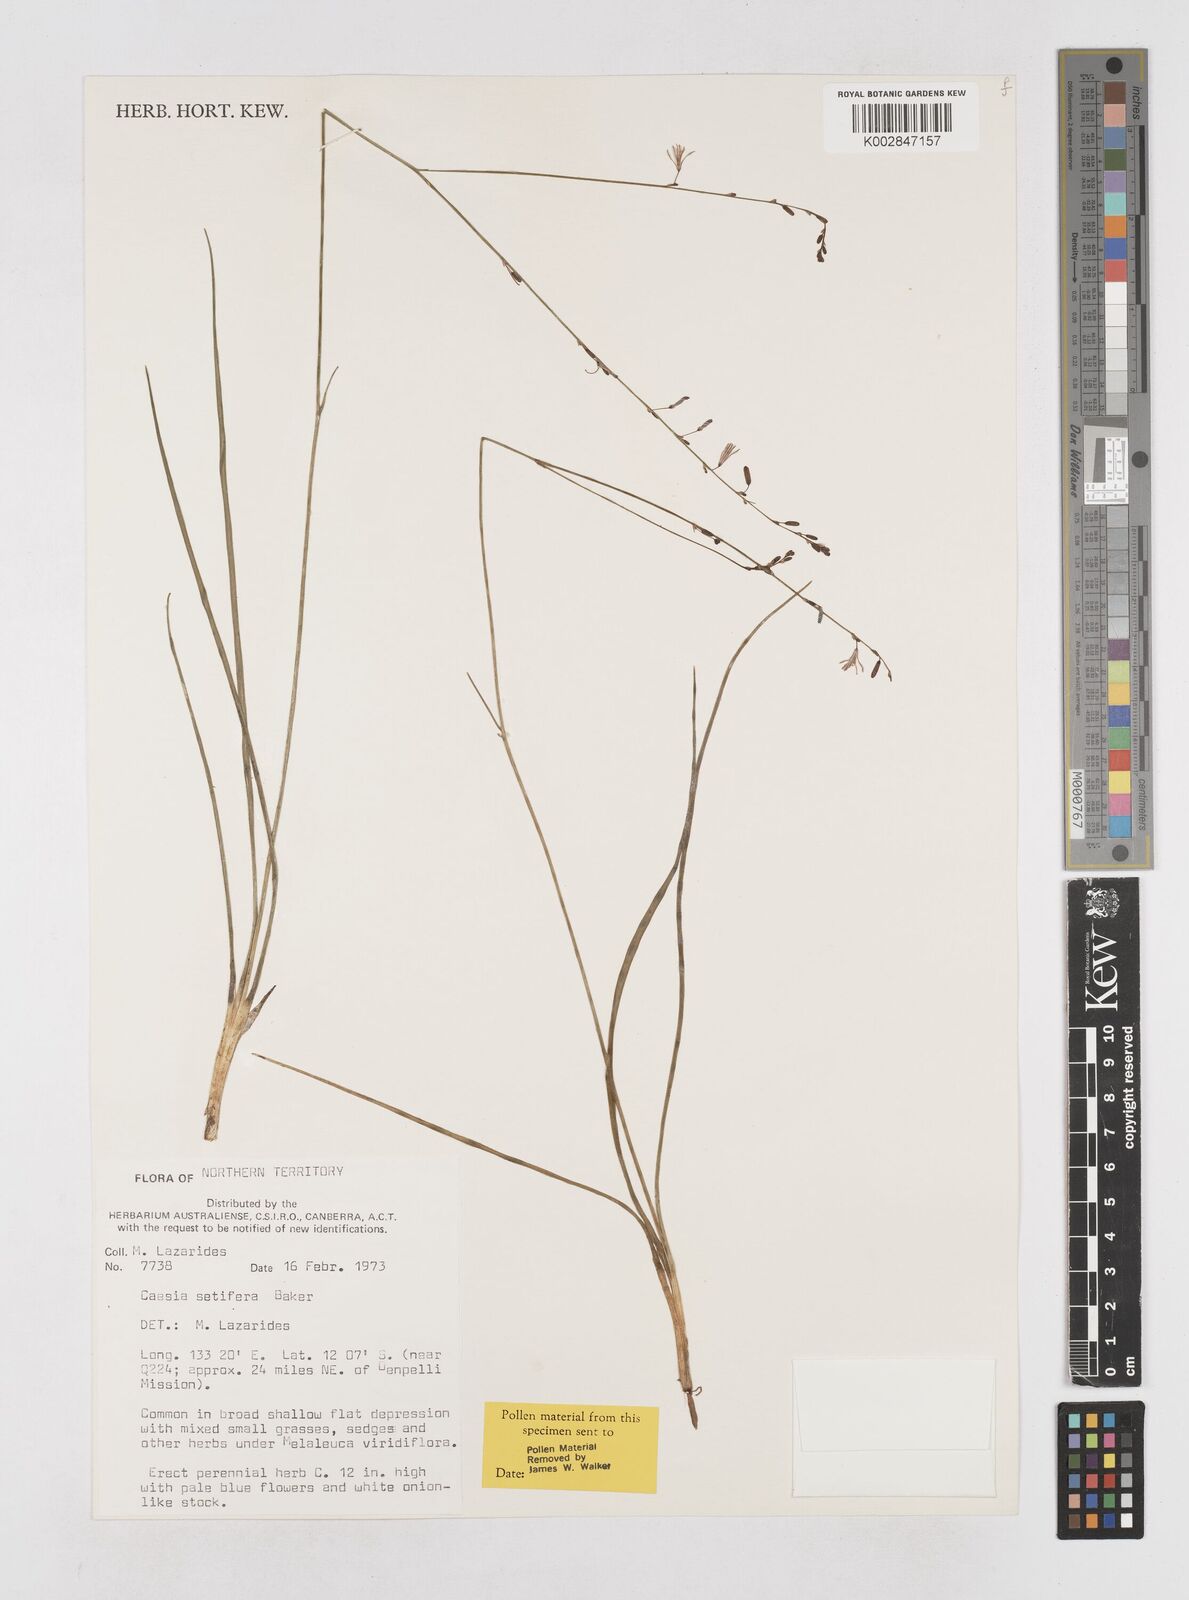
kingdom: Plantae
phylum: Tracheophyta
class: Liliopsida
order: Asparagales
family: Asphodelaceae
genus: Caesia
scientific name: Caesia setifera
